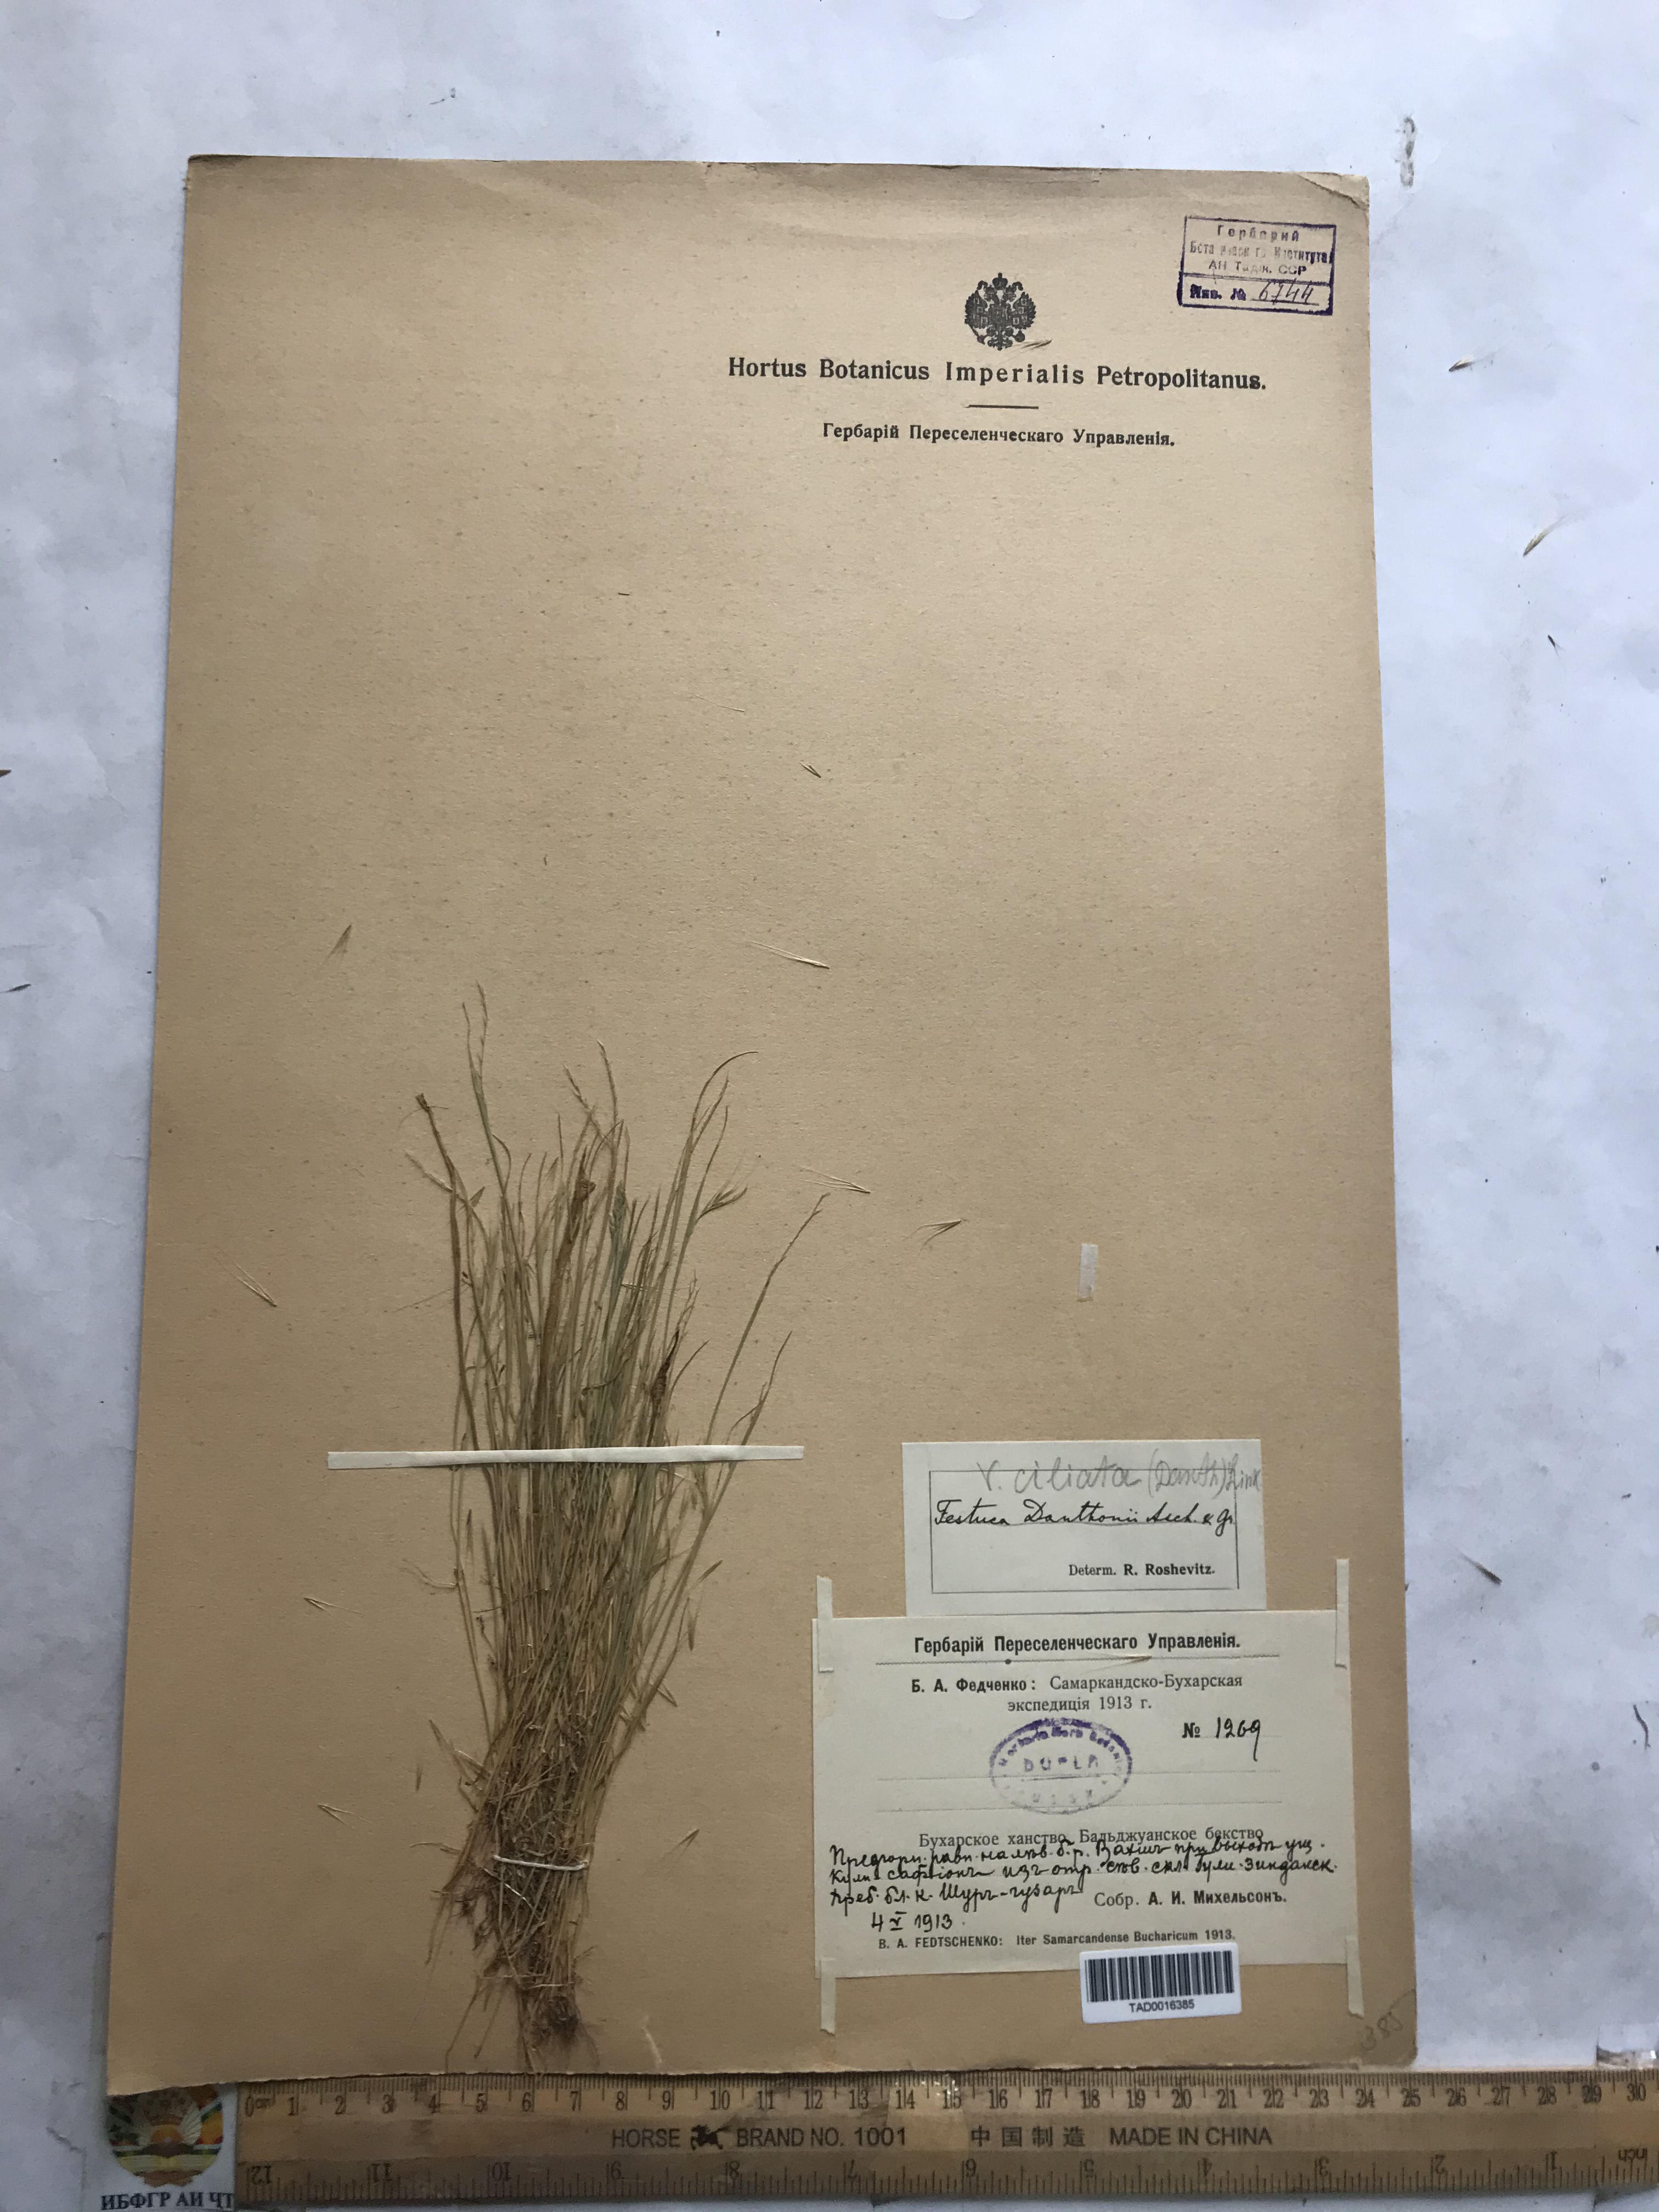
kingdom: Plantae
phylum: Tracheophyta
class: Liliopsida
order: Poales
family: Poaceae
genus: Festuca
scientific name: Festuca ambigua
